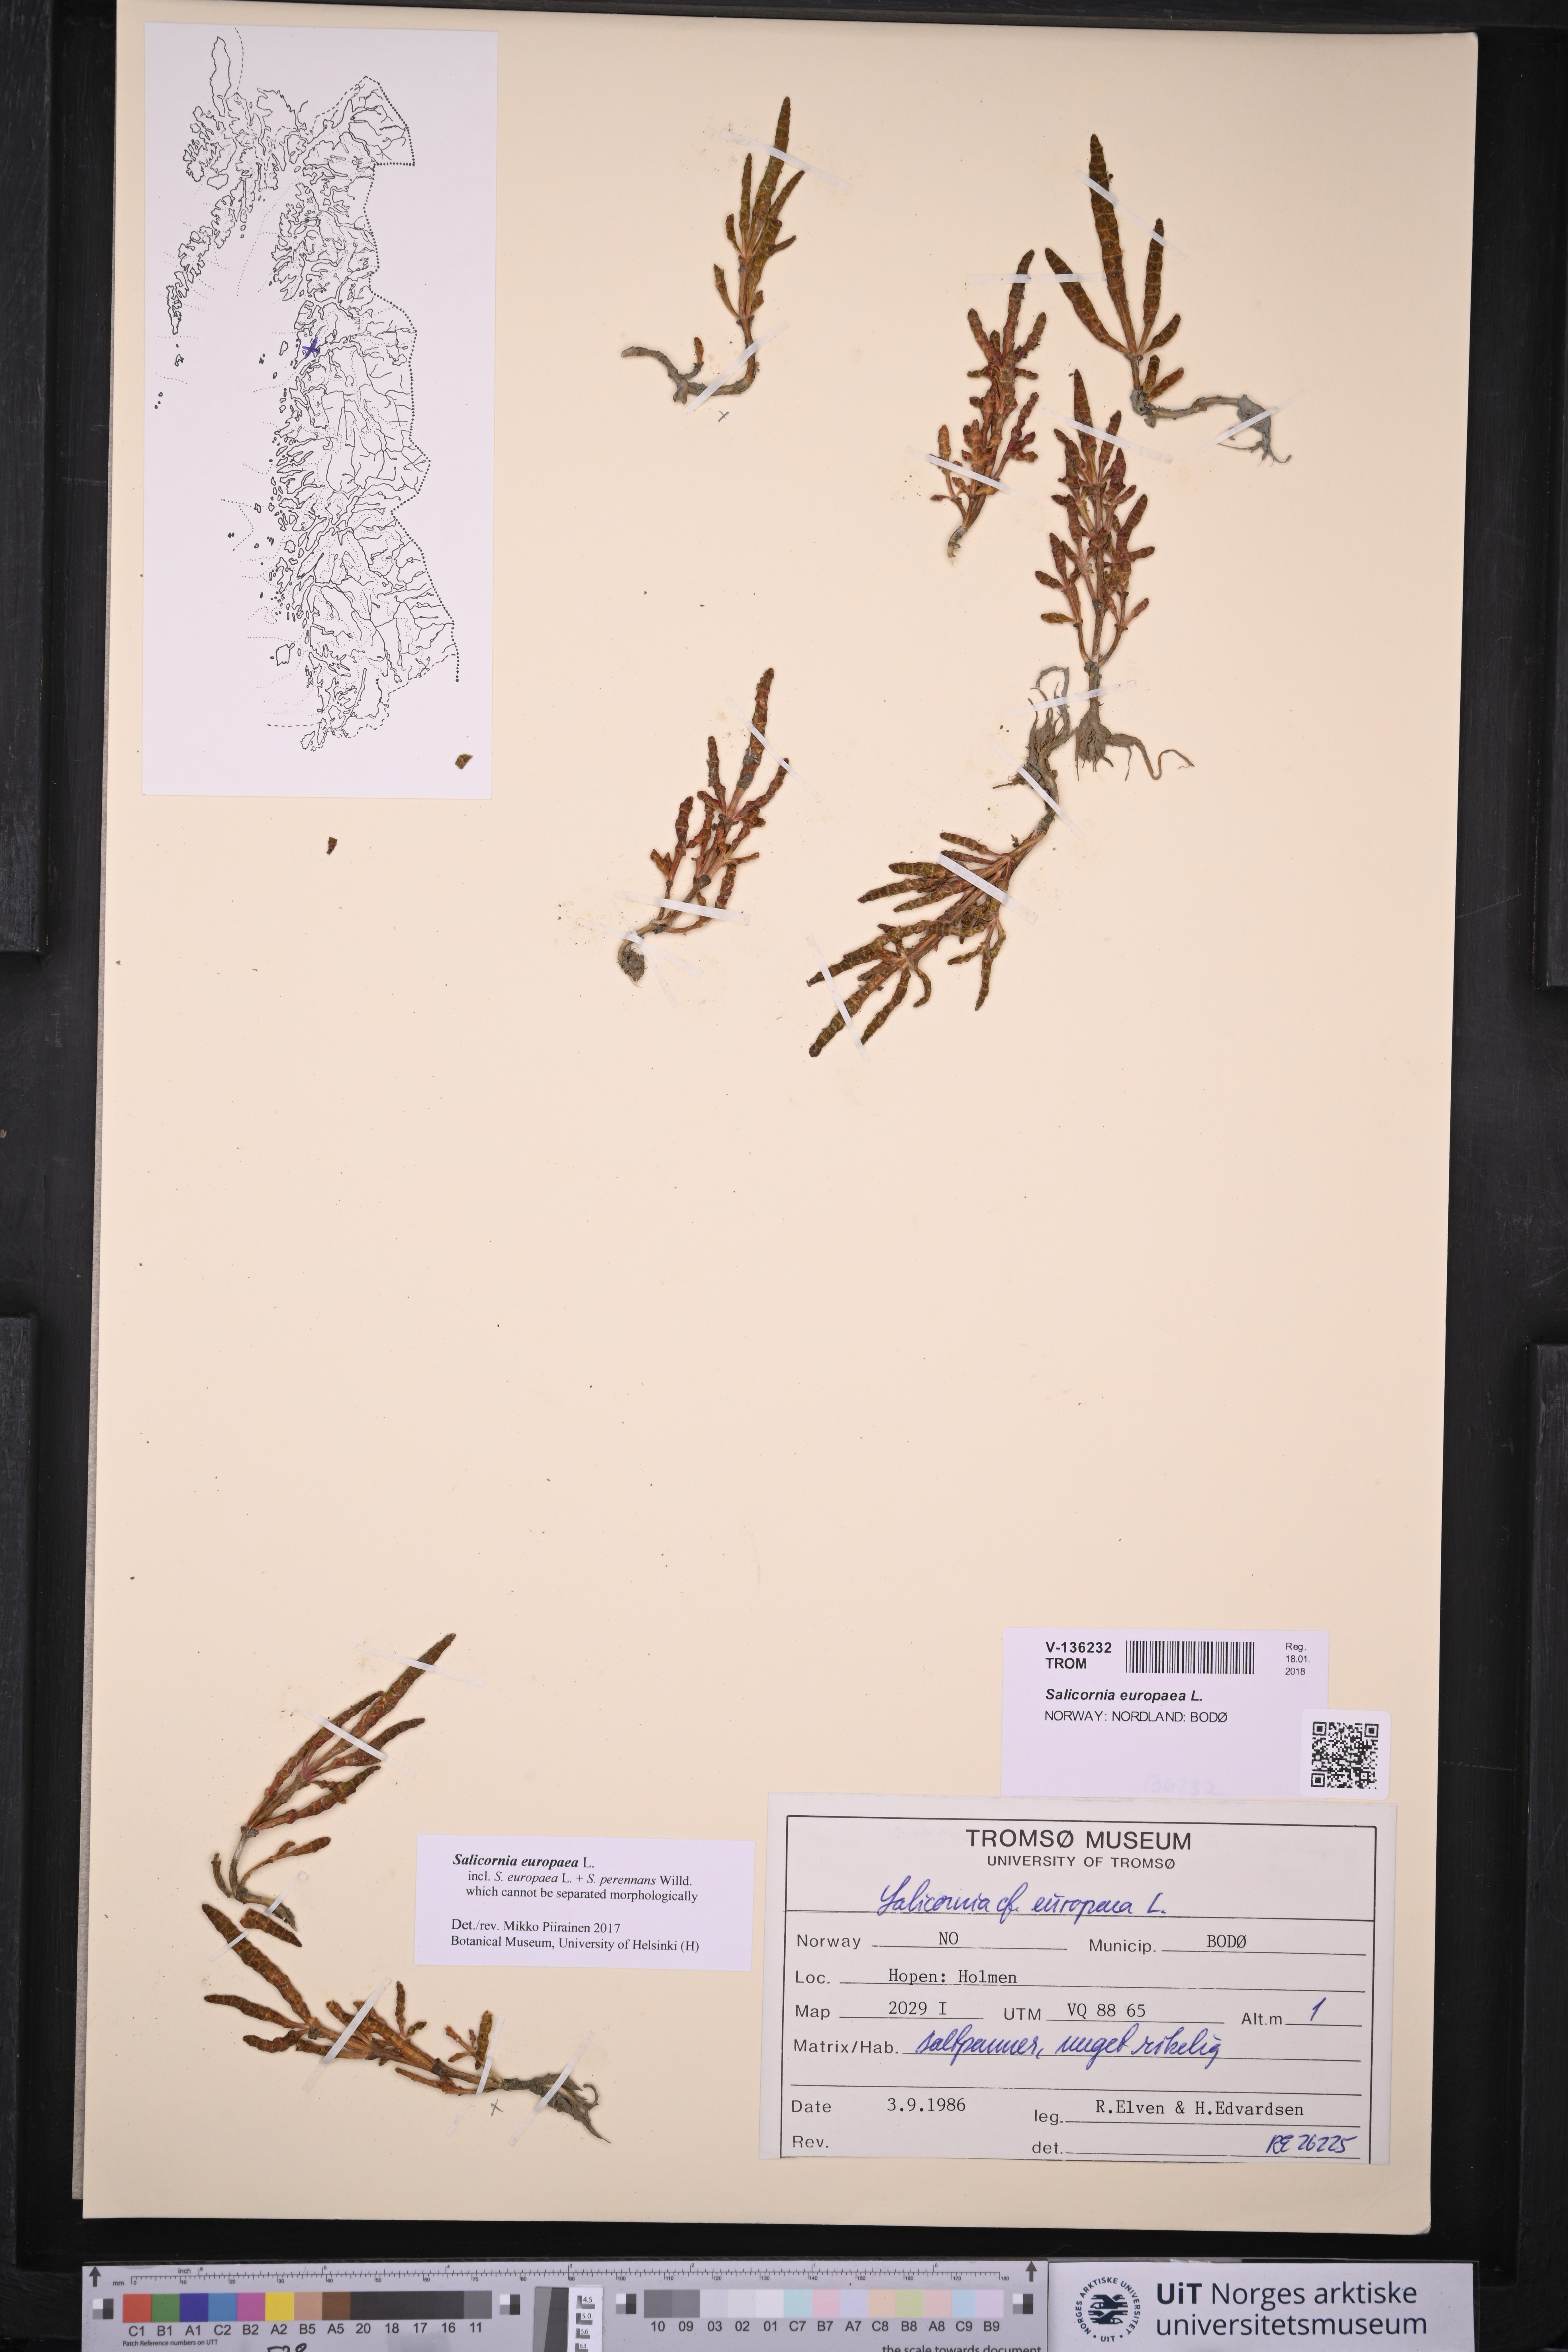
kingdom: Plantae
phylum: Tracheophyta
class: Magnoliopsida
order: Caryophyllales
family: Amaranthaceae
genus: Salicornia
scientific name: Salicornia europaea
